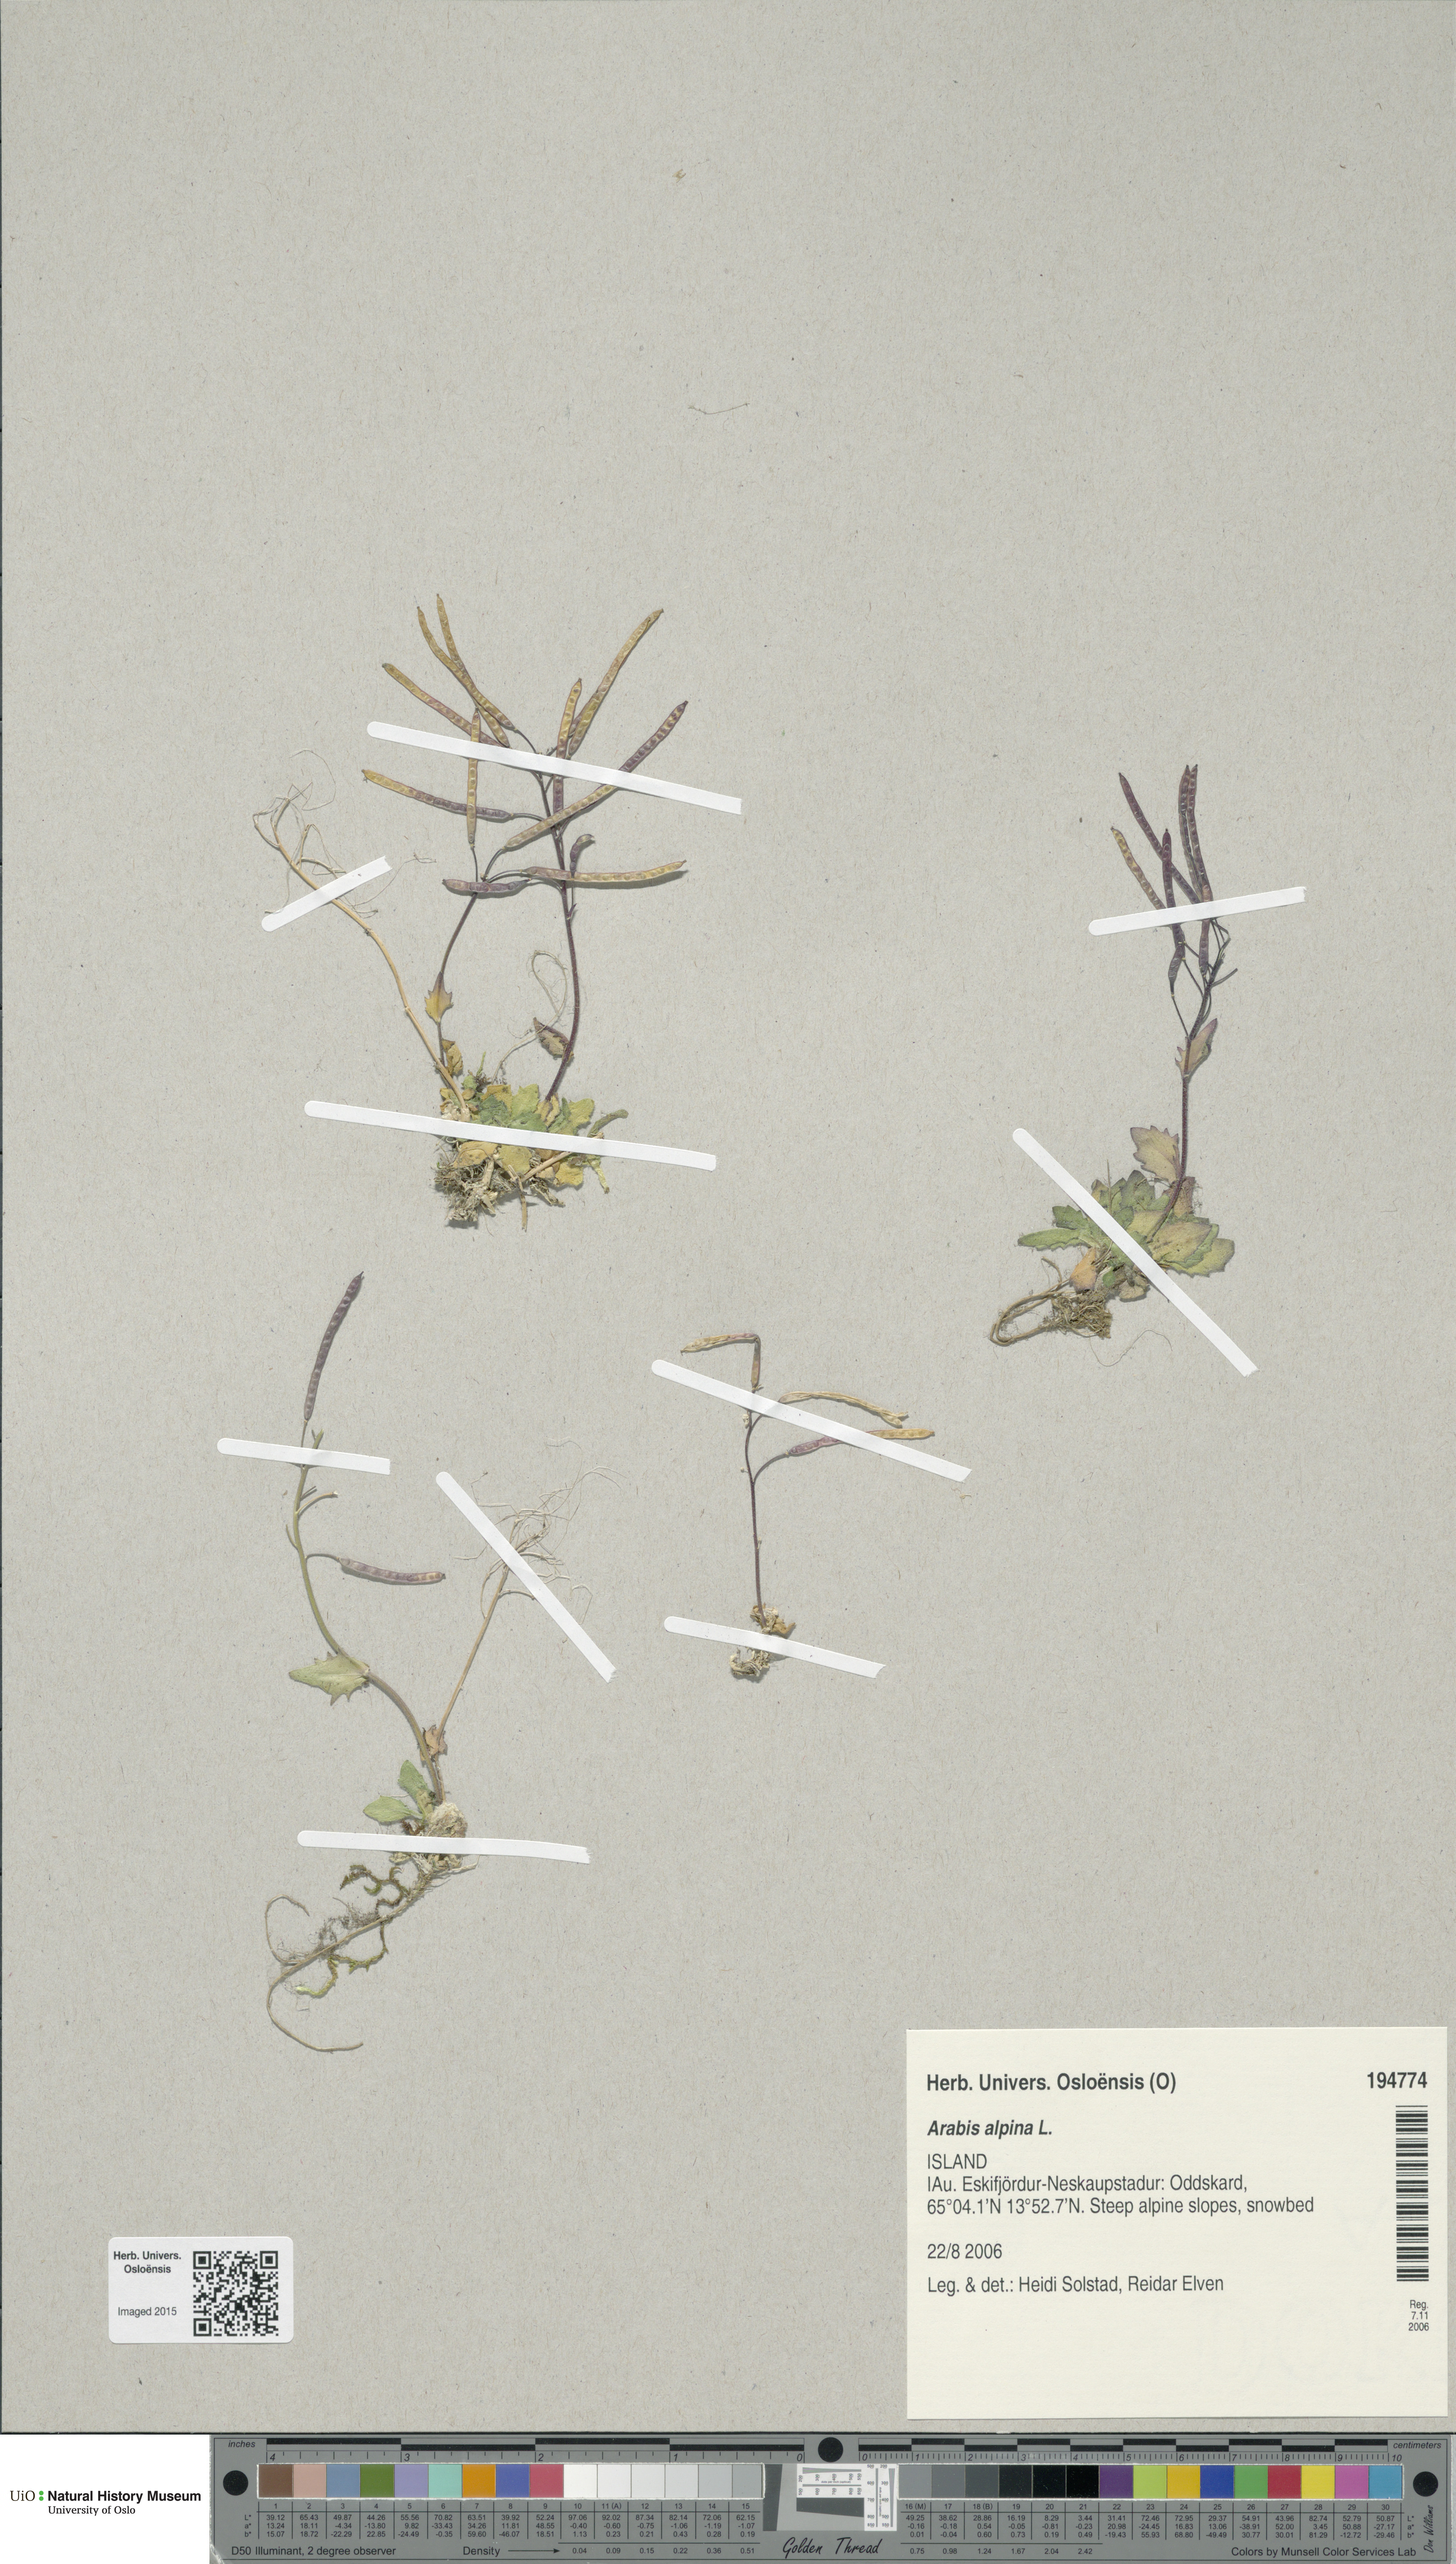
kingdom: Plantae
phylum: Tracheophyta
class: Magnoliopsida
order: Brassicales
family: Brassicaceae
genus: Arabis
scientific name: Arabis alpina
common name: Alpine rock-cress
